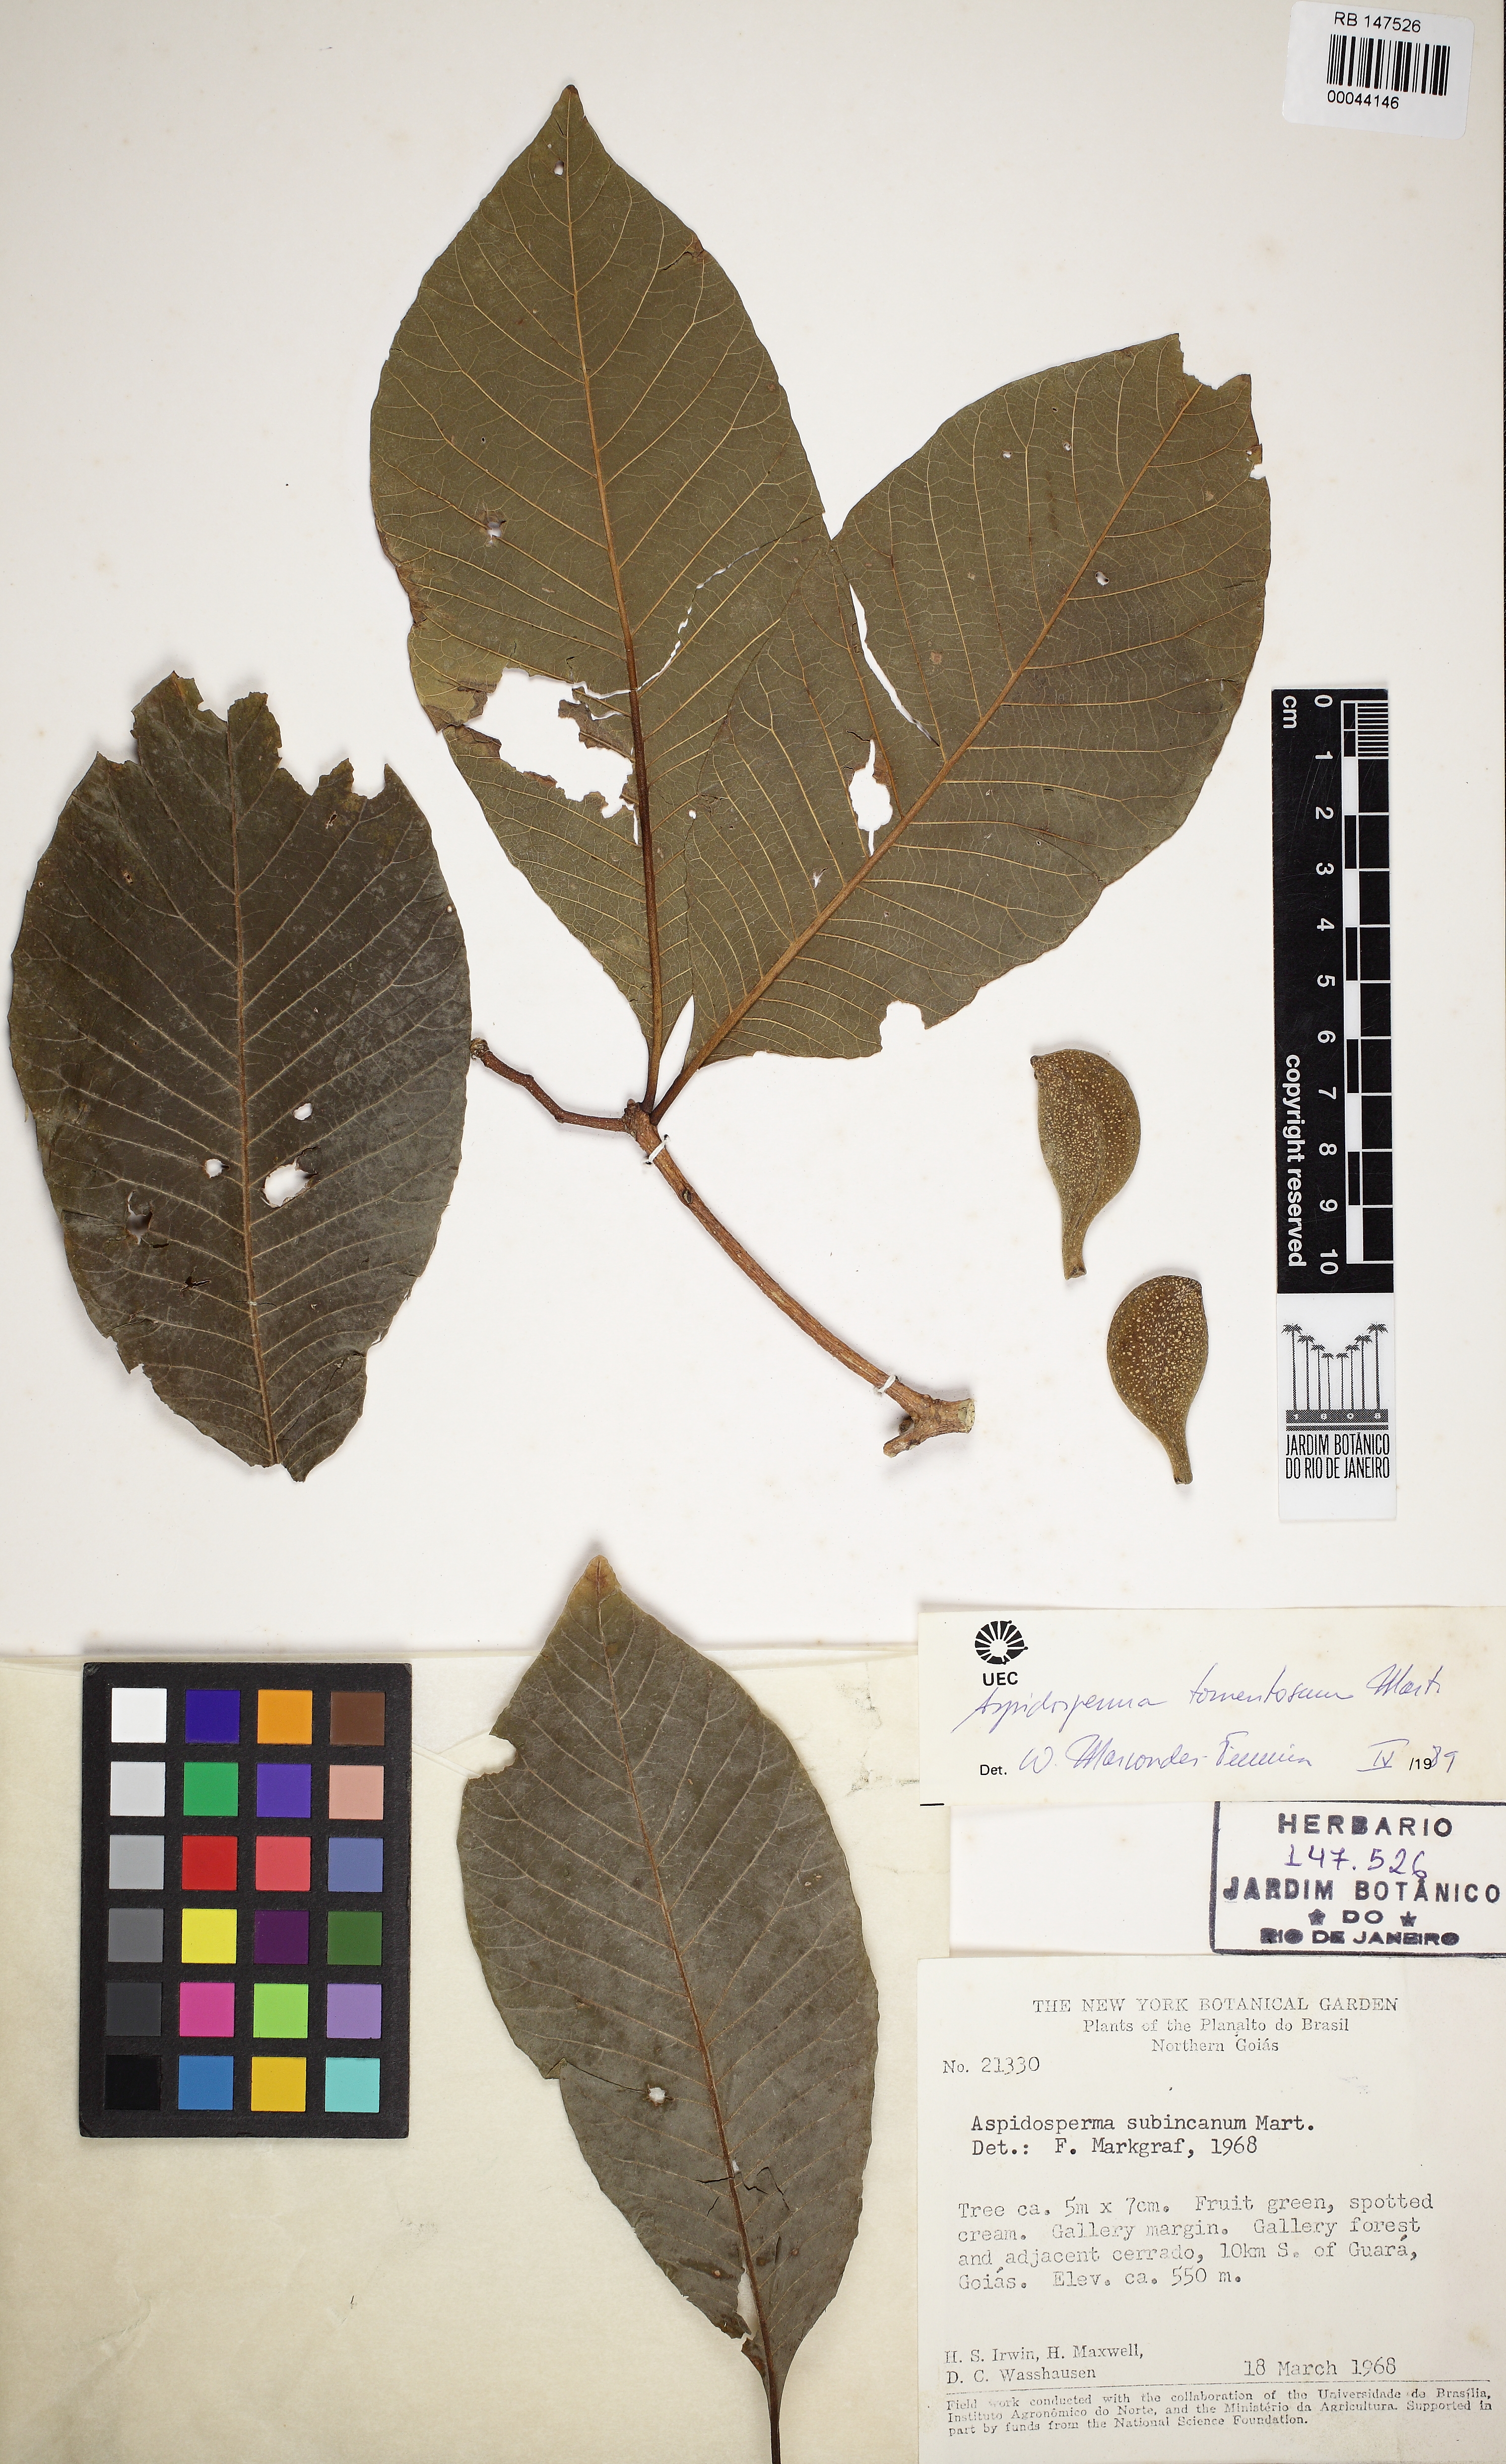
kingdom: Plantae
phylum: Tracheophyta
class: Magnoliopsida
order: Gentianales
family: Apocynaceae
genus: Aspidosperma
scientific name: Aspidosperma subincanum
